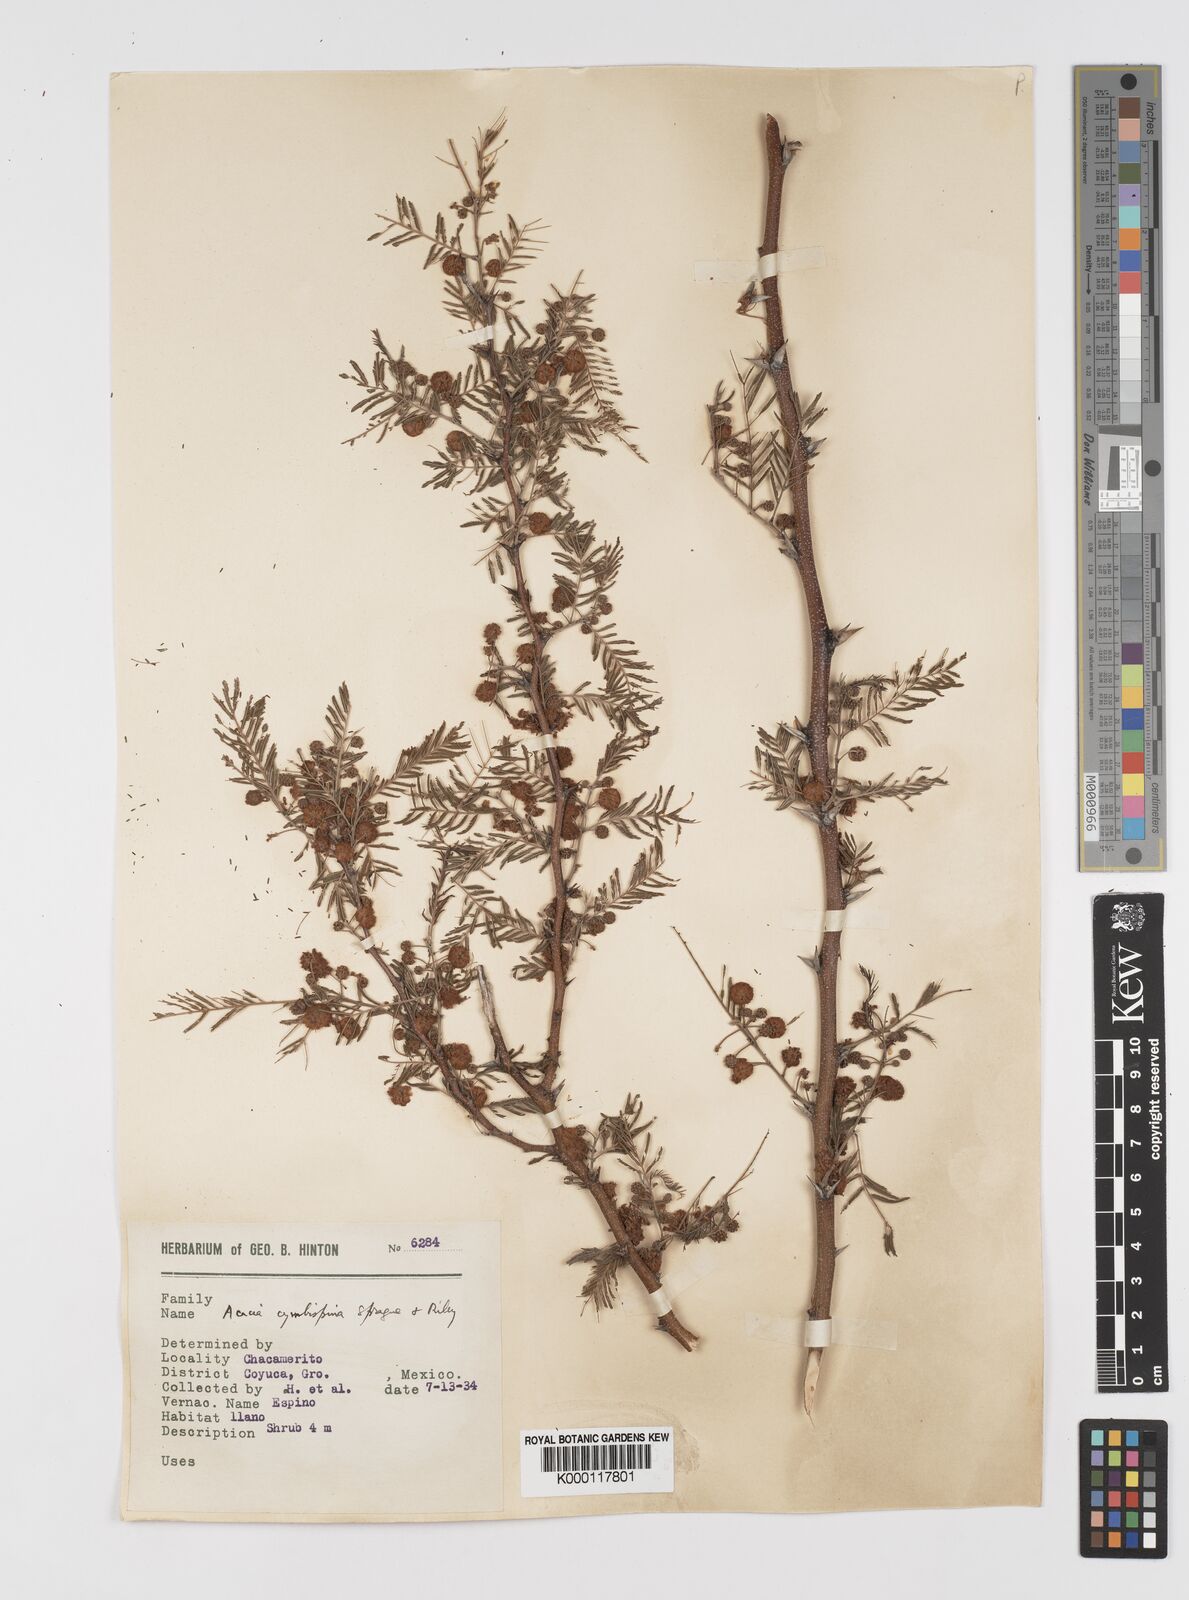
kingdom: Plantae
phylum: Tracheophyta
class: Magnoliopsida
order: Fabales
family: Fabaceae
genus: Vachellia
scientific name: Vachellia campeachiana
